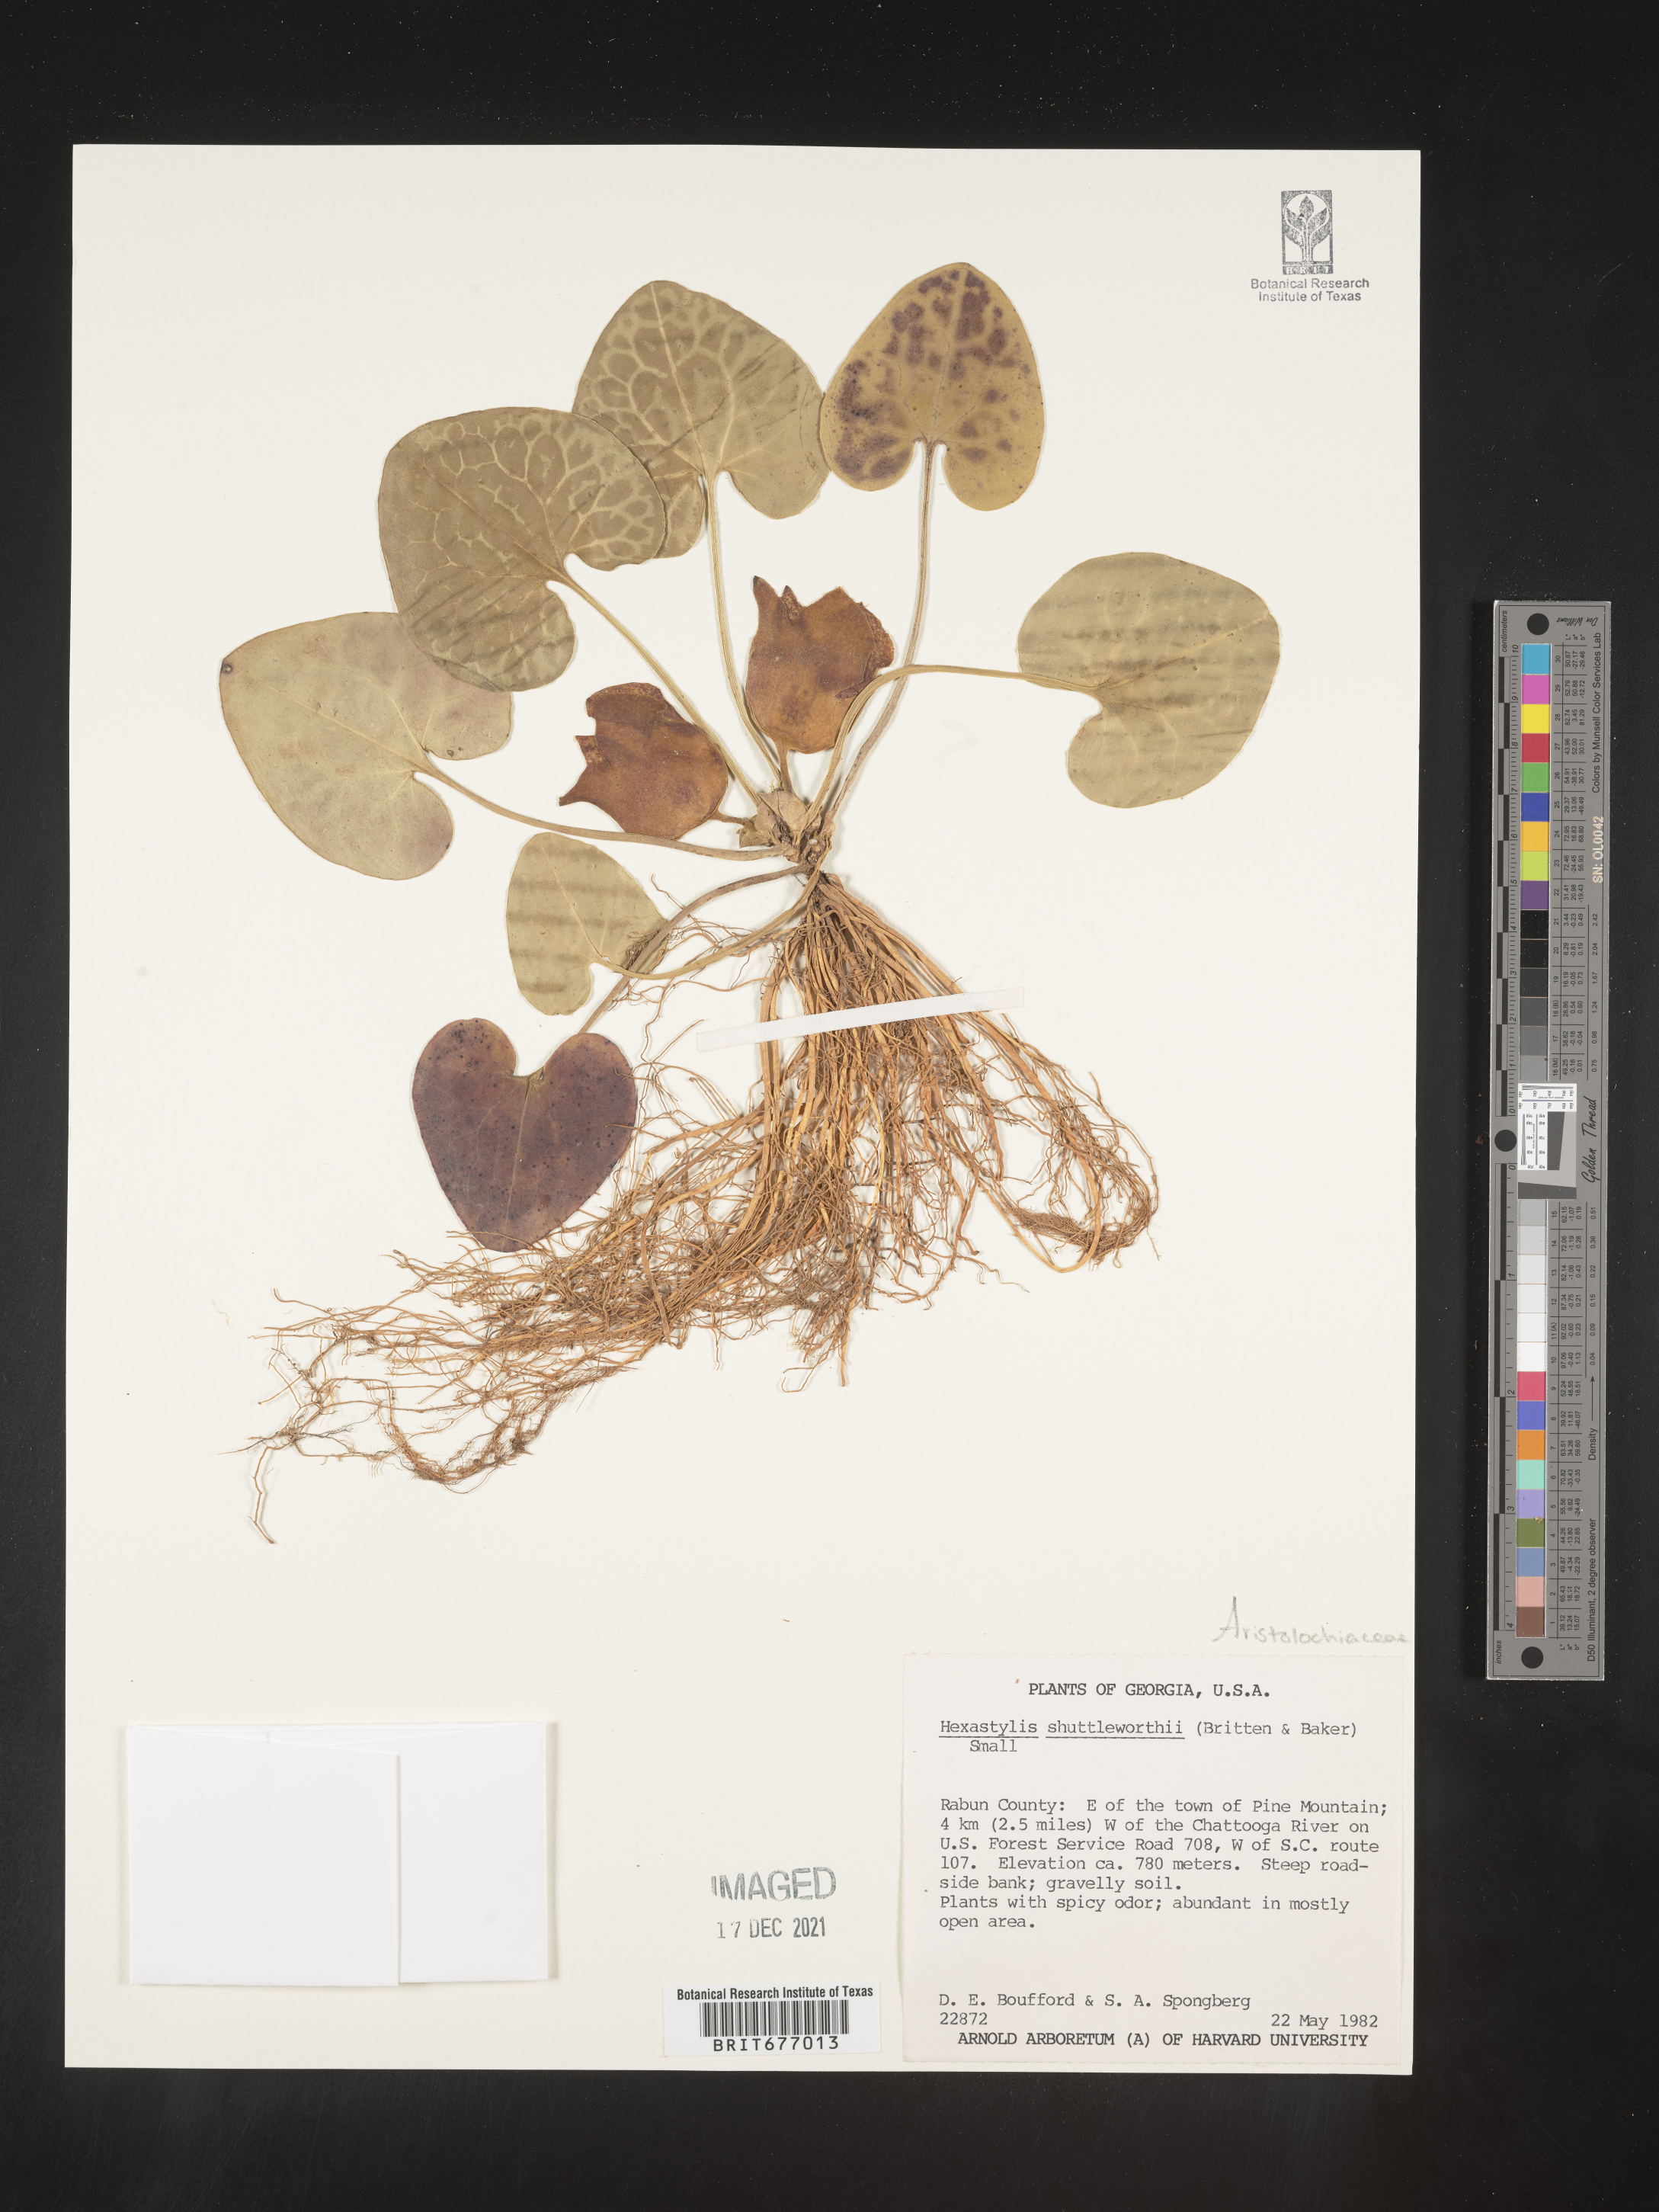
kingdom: Plantae
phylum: Tracheophyta
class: Magnoliopsida
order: Piperales
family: Aristolochiaceae
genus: Asarum
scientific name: Asarum
